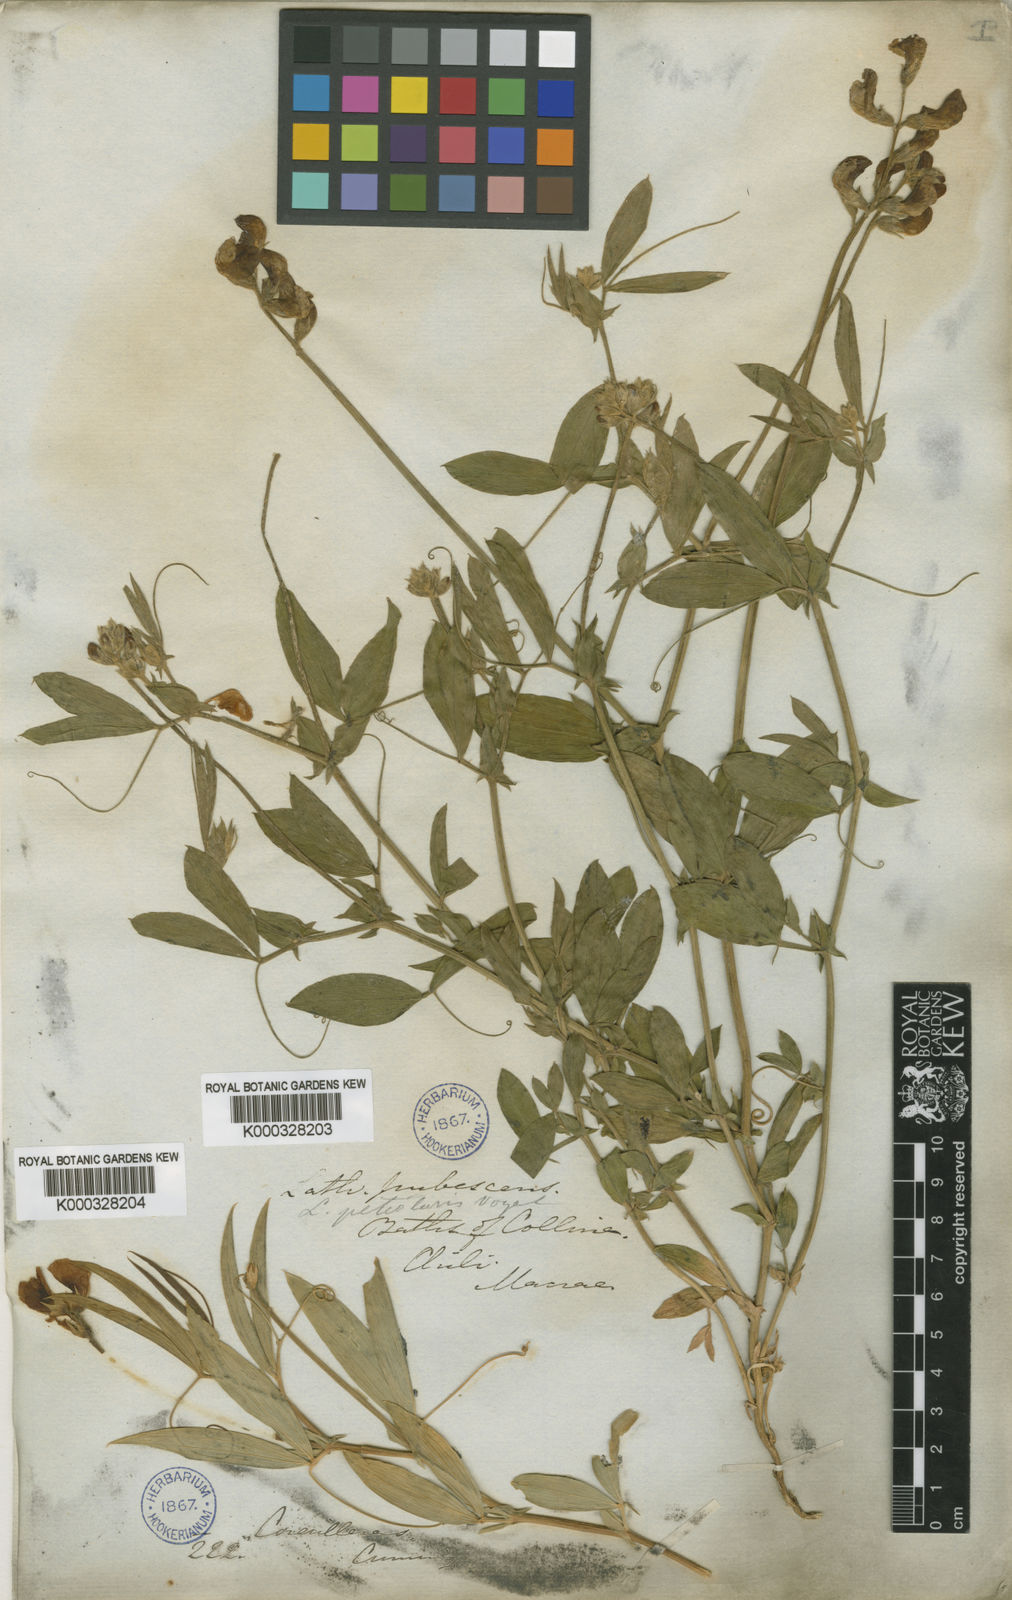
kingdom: Plantae
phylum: Tracheophyta
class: Magnoliopsida
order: Fabales
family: Fabaceae
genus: Lathyrus
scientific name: Lathyrus pubescens
